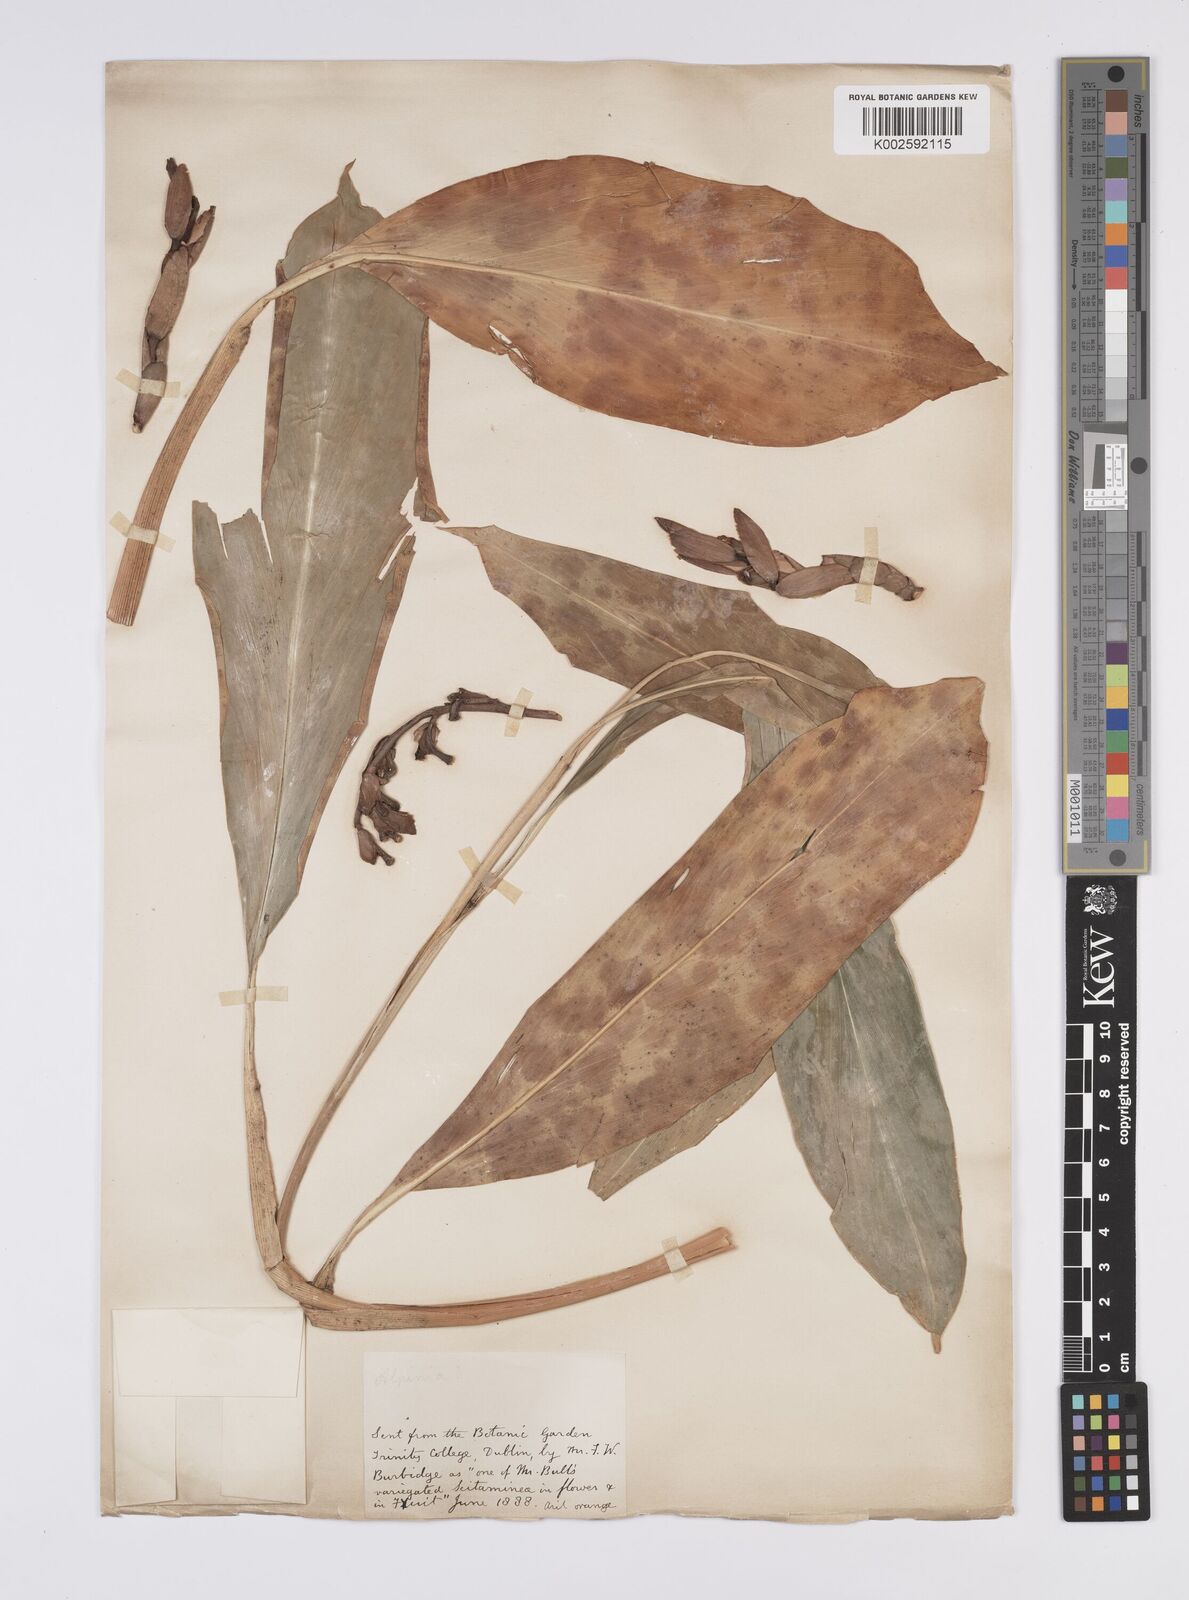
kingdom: Plantae
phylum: Tracheophyta
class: Liliopsida
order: Zingiberales
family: Zingiberaceae
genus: Alpinia
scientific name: Alpinia
